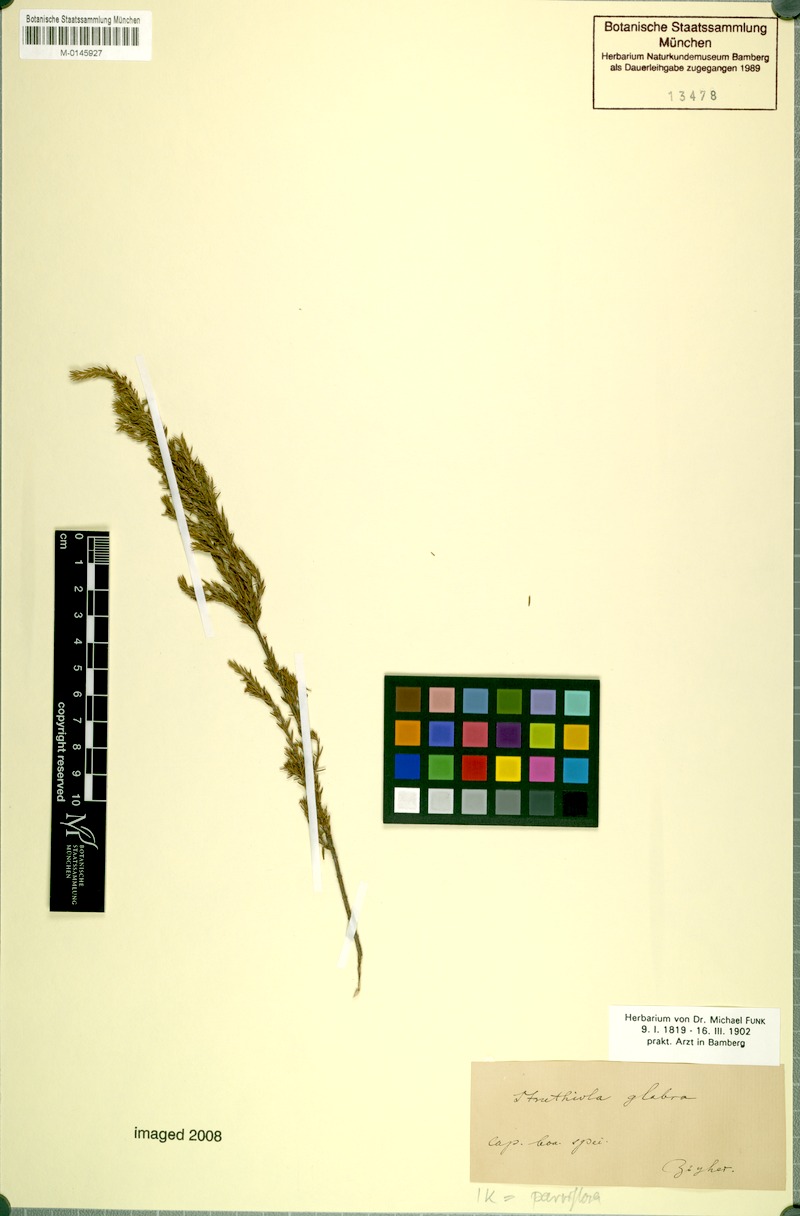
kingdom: Plantae
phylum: Tracheophyta
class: Magnoliopsida
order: Malvales
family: Thymelaeaceae
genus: Struthiola
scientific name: Struthiola parviflora
